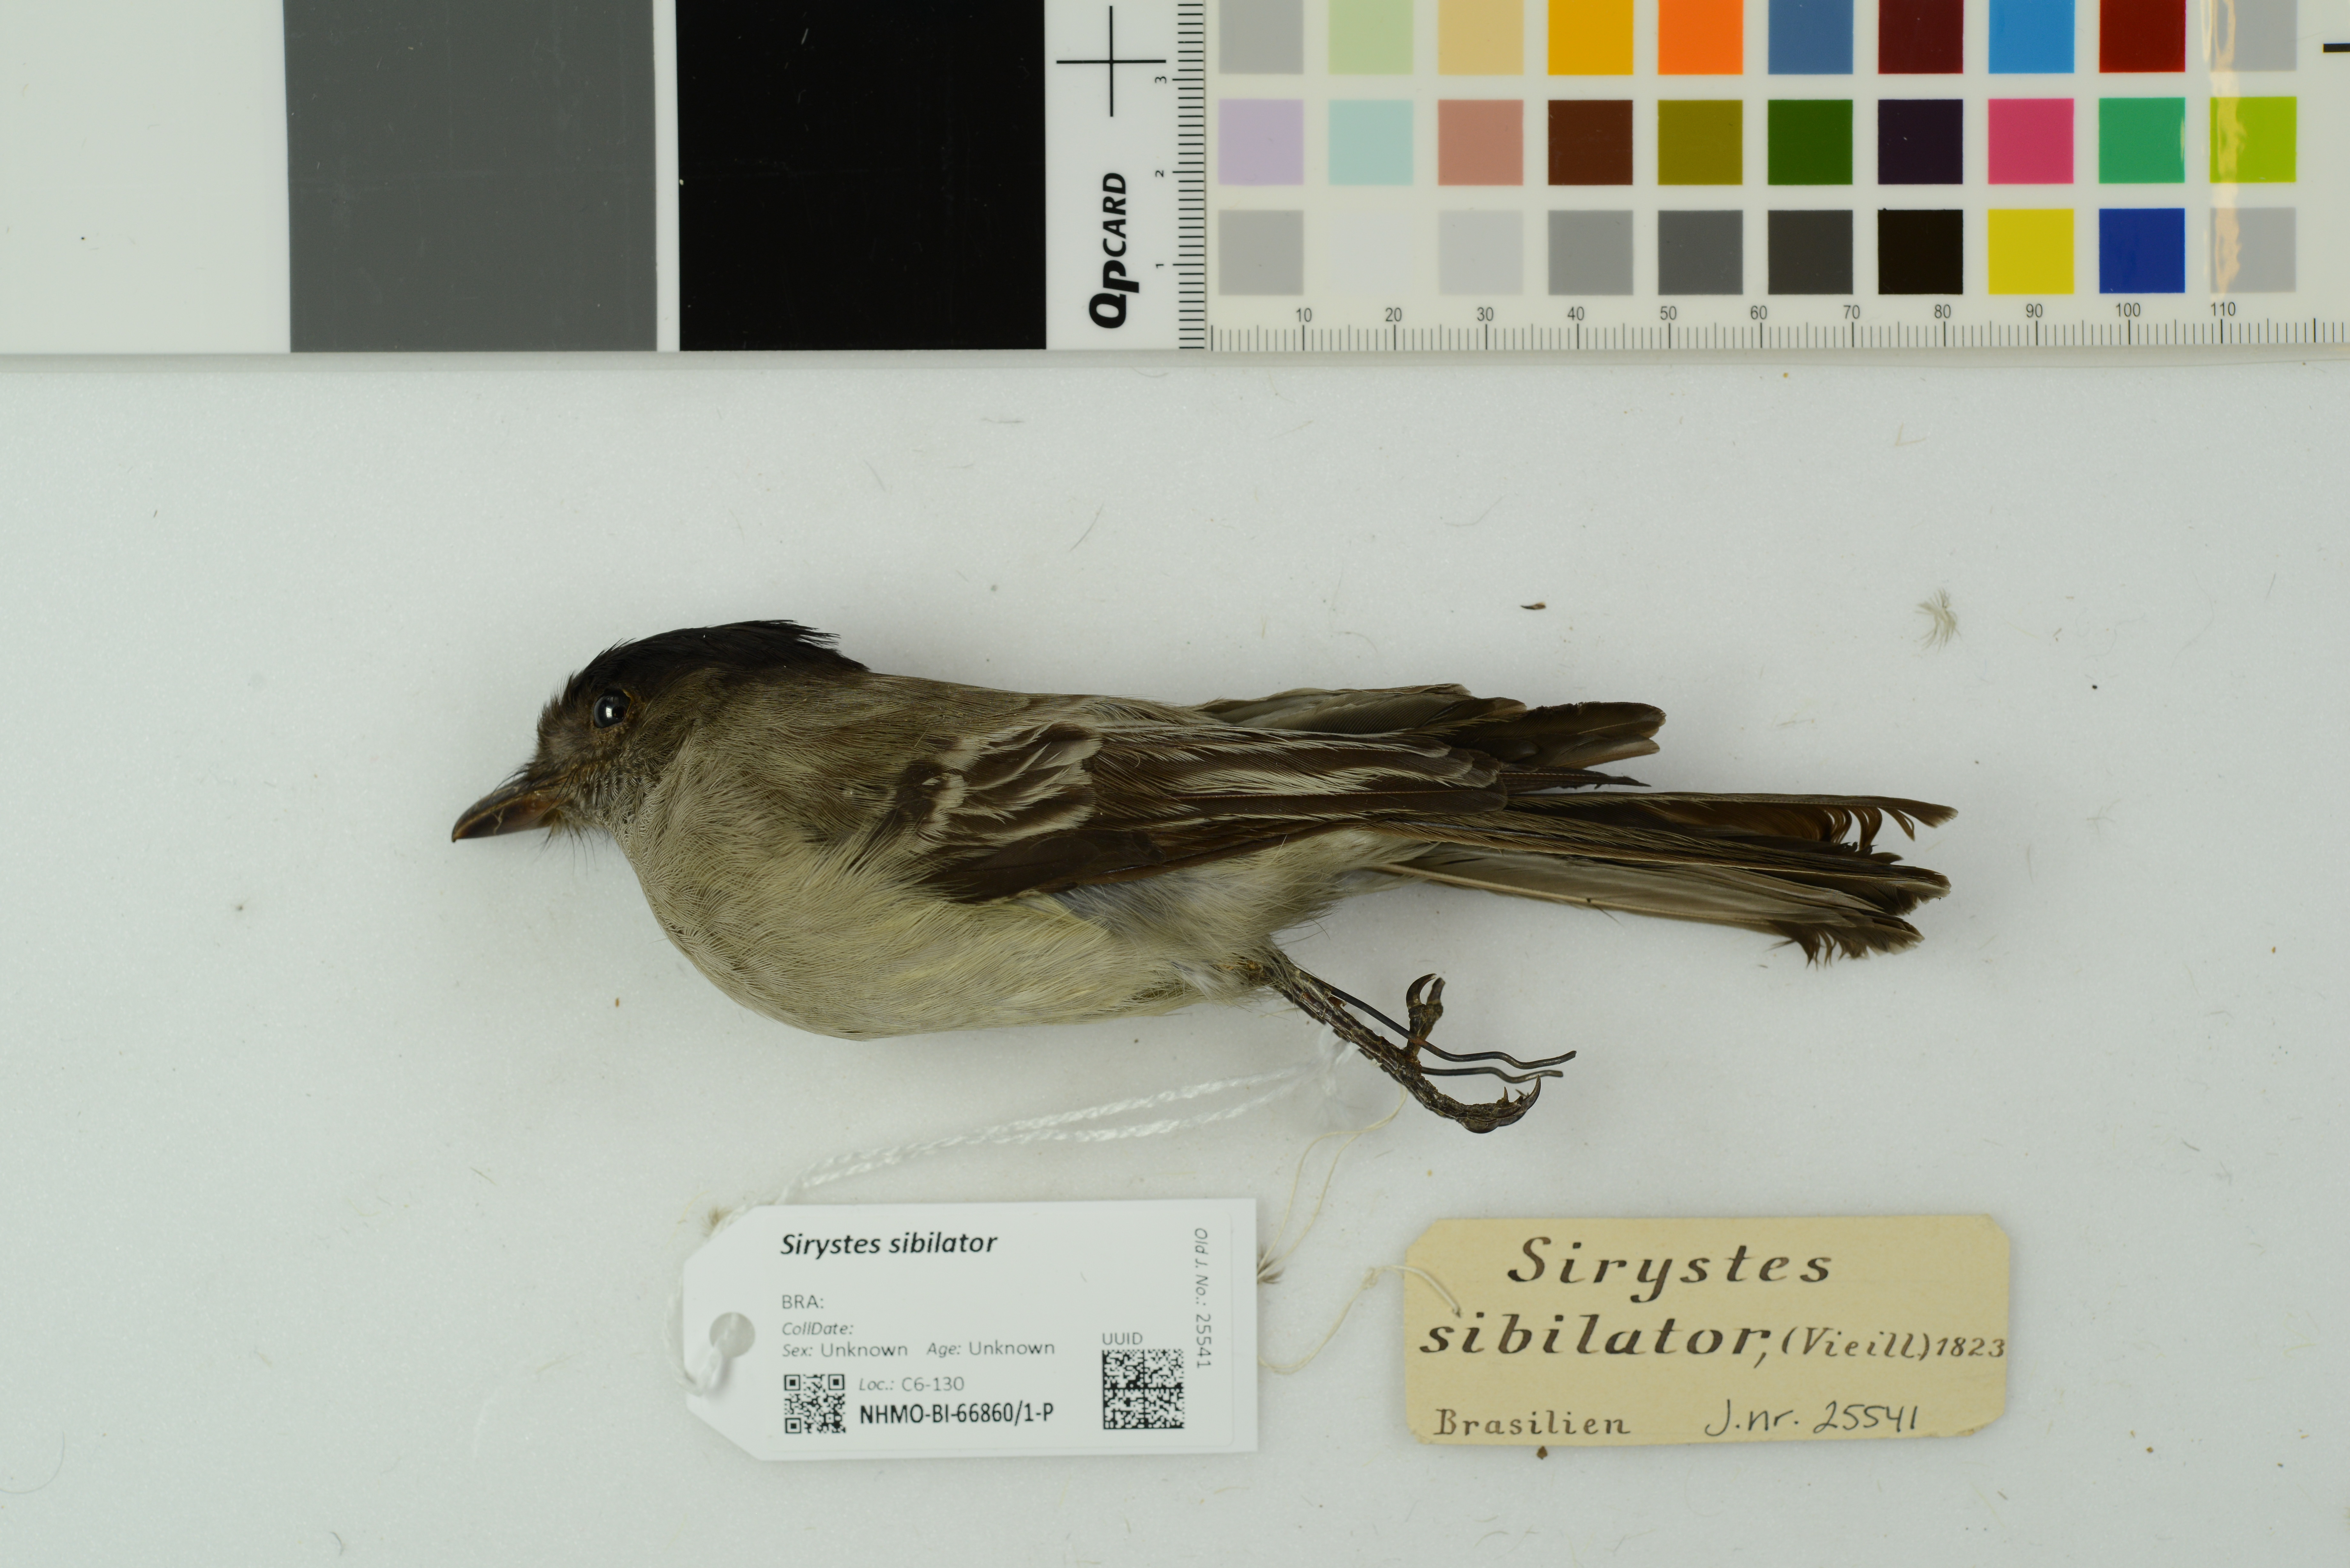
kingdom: Animalia
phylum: Chordata
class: Aves
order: Passeriformes
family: Tyrannidae
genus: Sirystes
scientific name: Sirystes sibilator
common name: Sirystes
